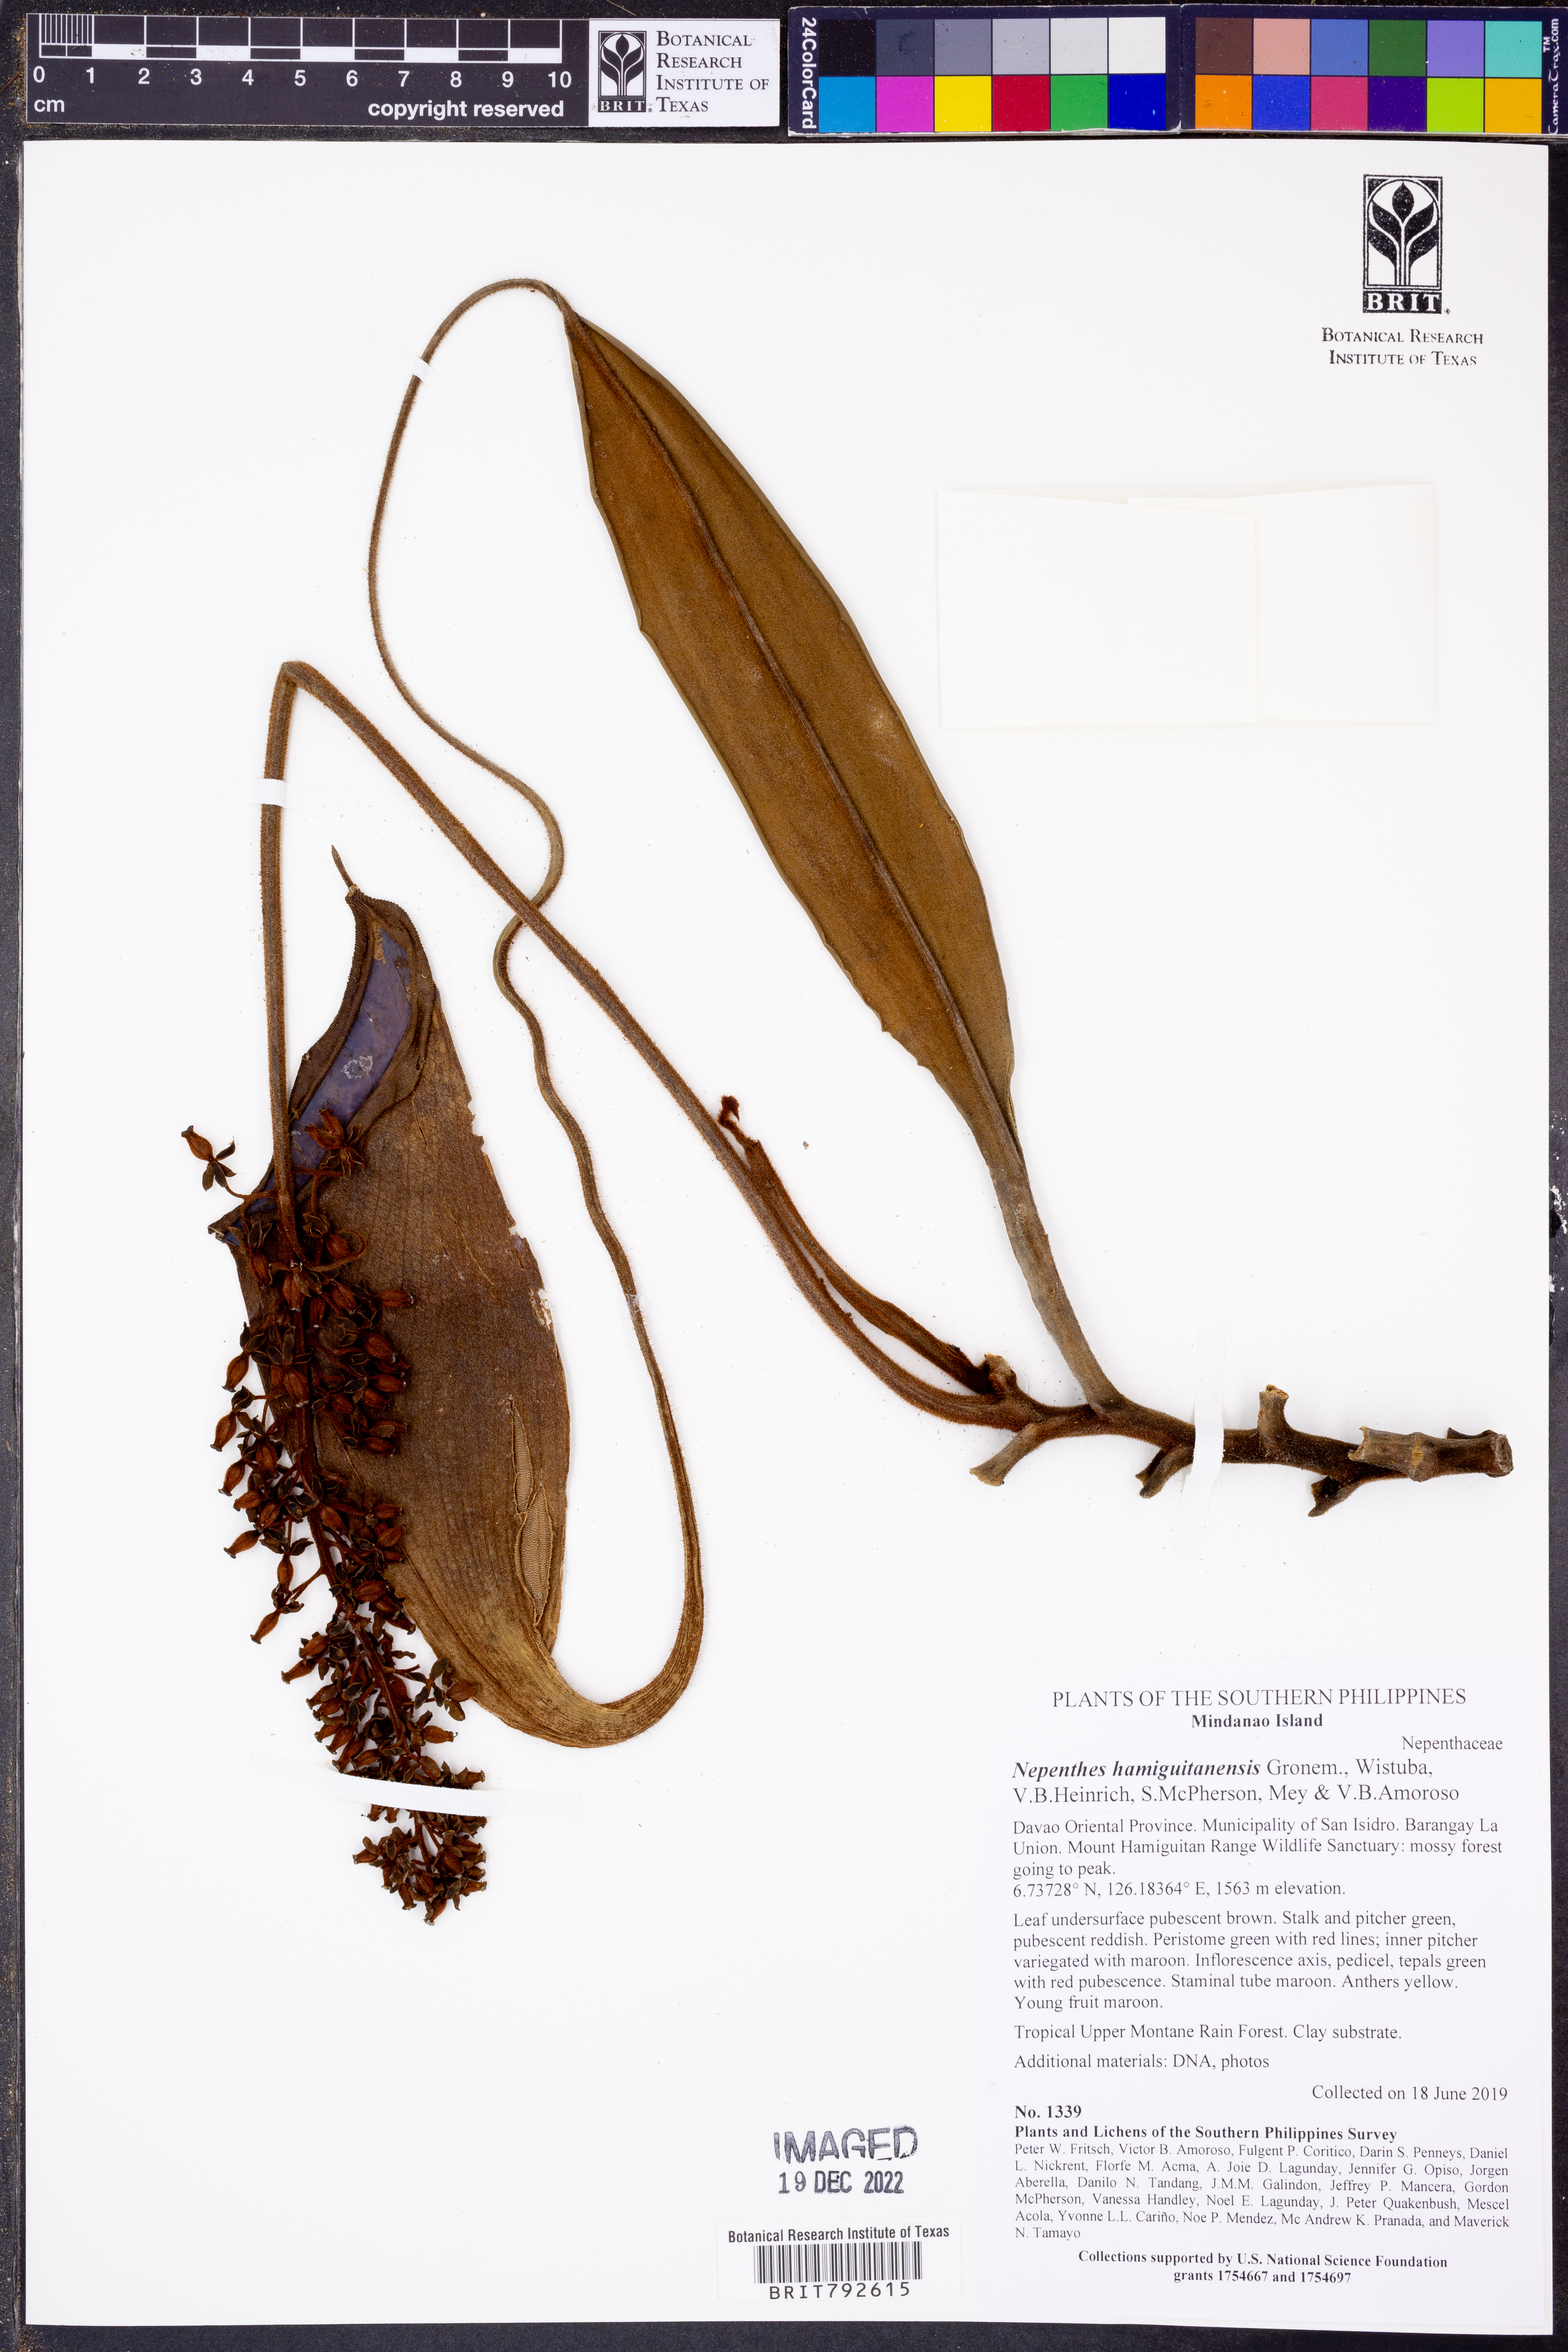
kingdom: Plantae
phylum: Tracheophyta
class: Magnoliopsida
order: Caryophyllales
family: Nepenthaceae
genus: Nepenthes
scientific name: Nepenthes hamiguitanensis
